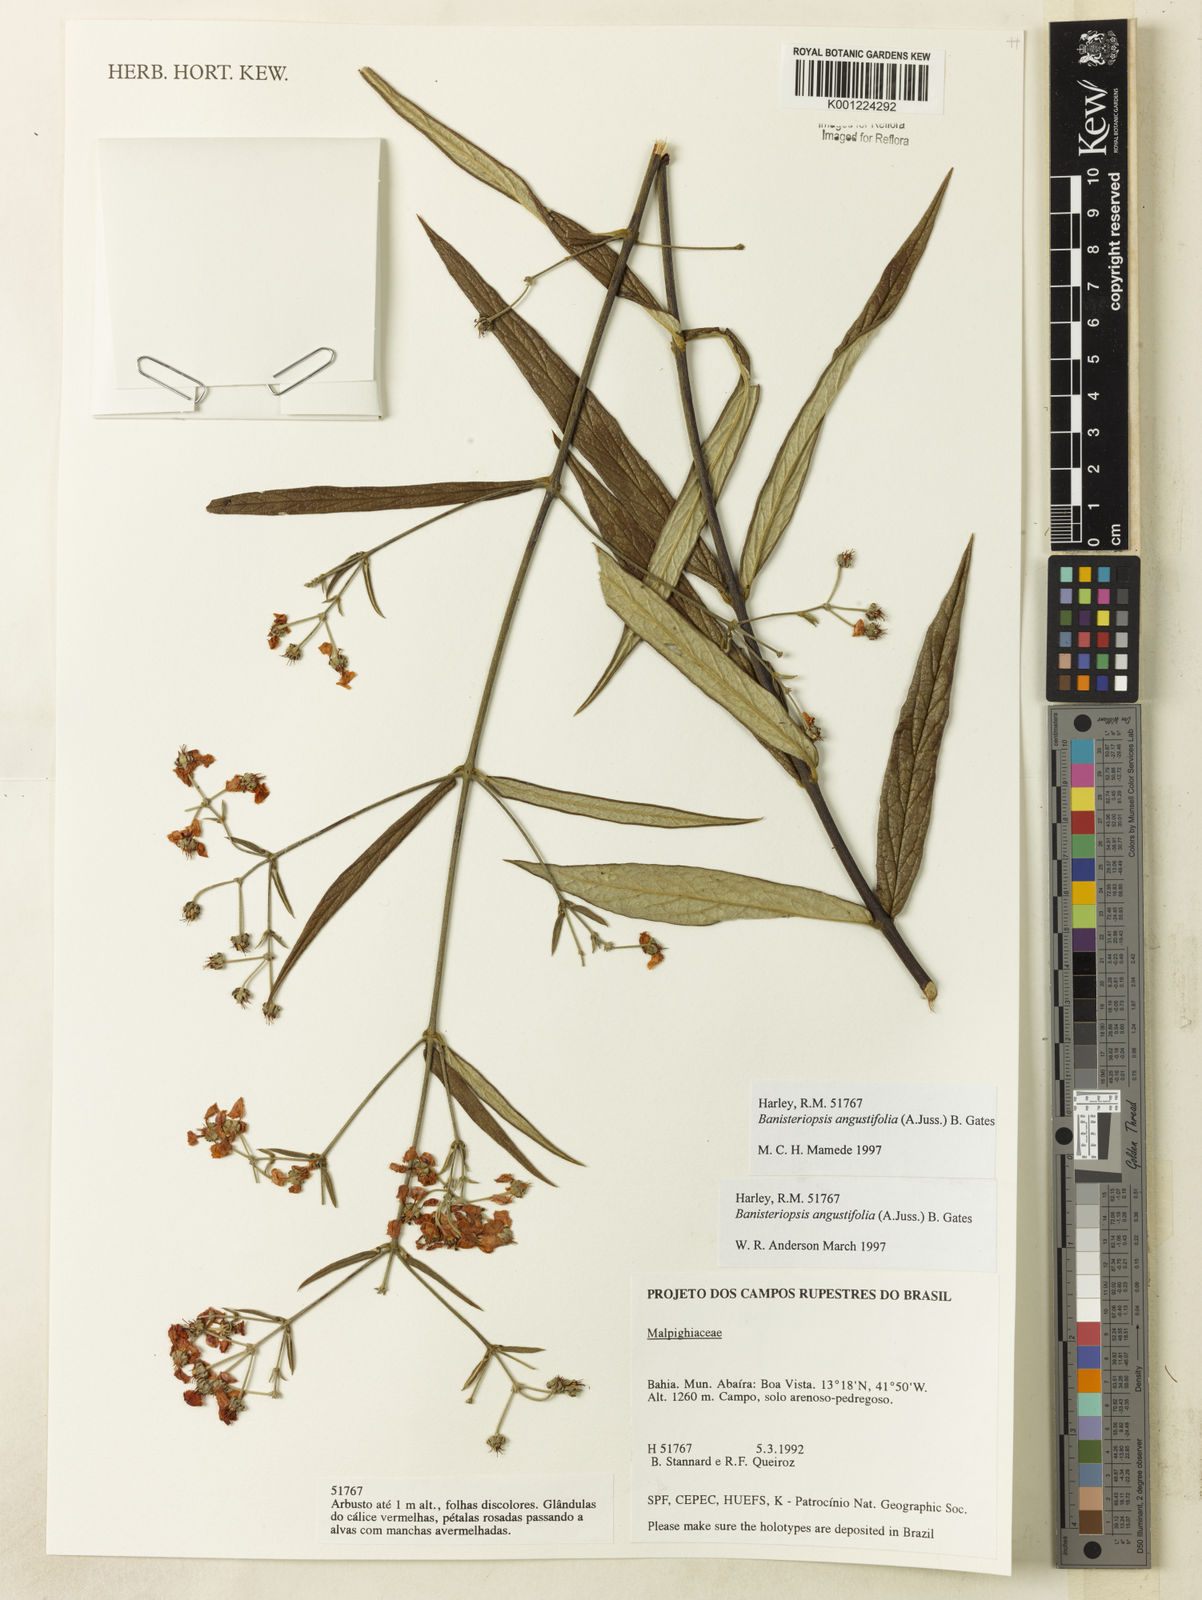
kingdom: Plantae
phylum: Tracheophyta
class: Magnoliopsida
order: Malpighiales
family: Malpighiaceae
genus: Banisteriopsis
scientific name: Banisteriopsis angustifolia
